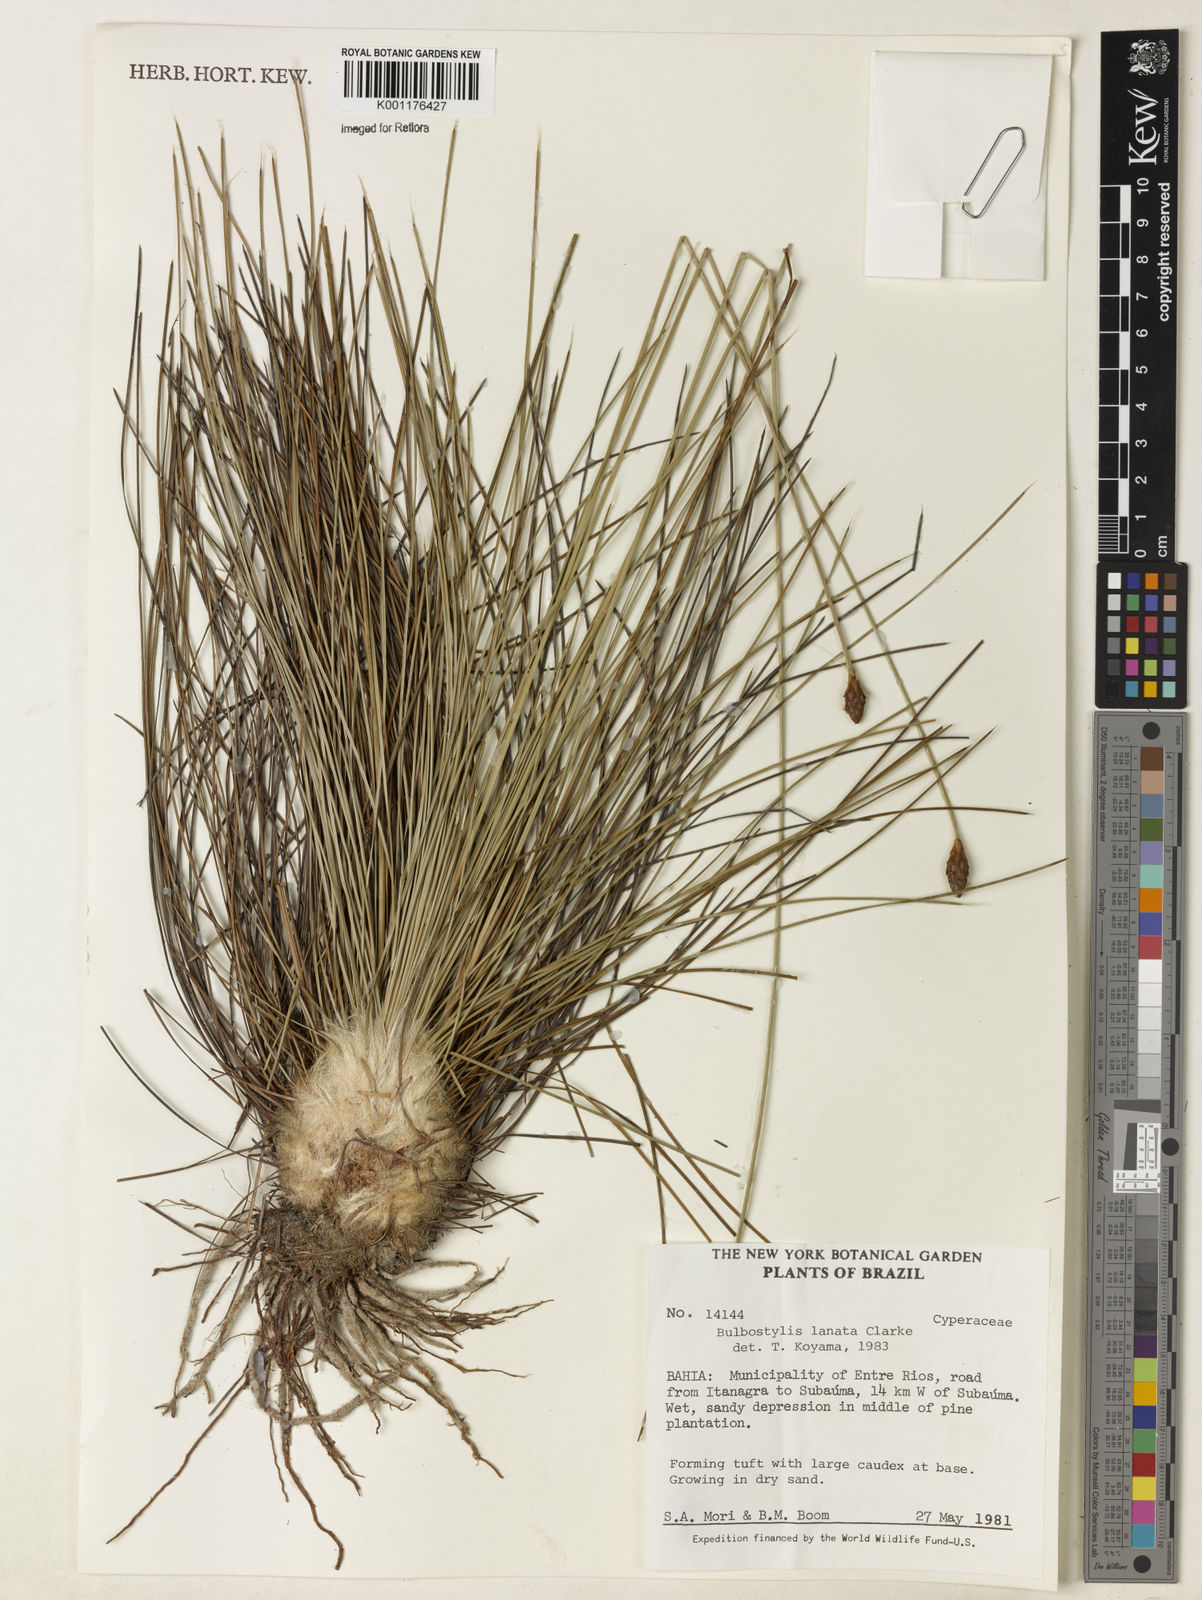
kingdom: Plantae
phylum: Tracheophyta
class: Liliopsida
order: Poales
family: Cyperaceae
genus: Bulbostylis
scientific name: Bulbostylis lanata
